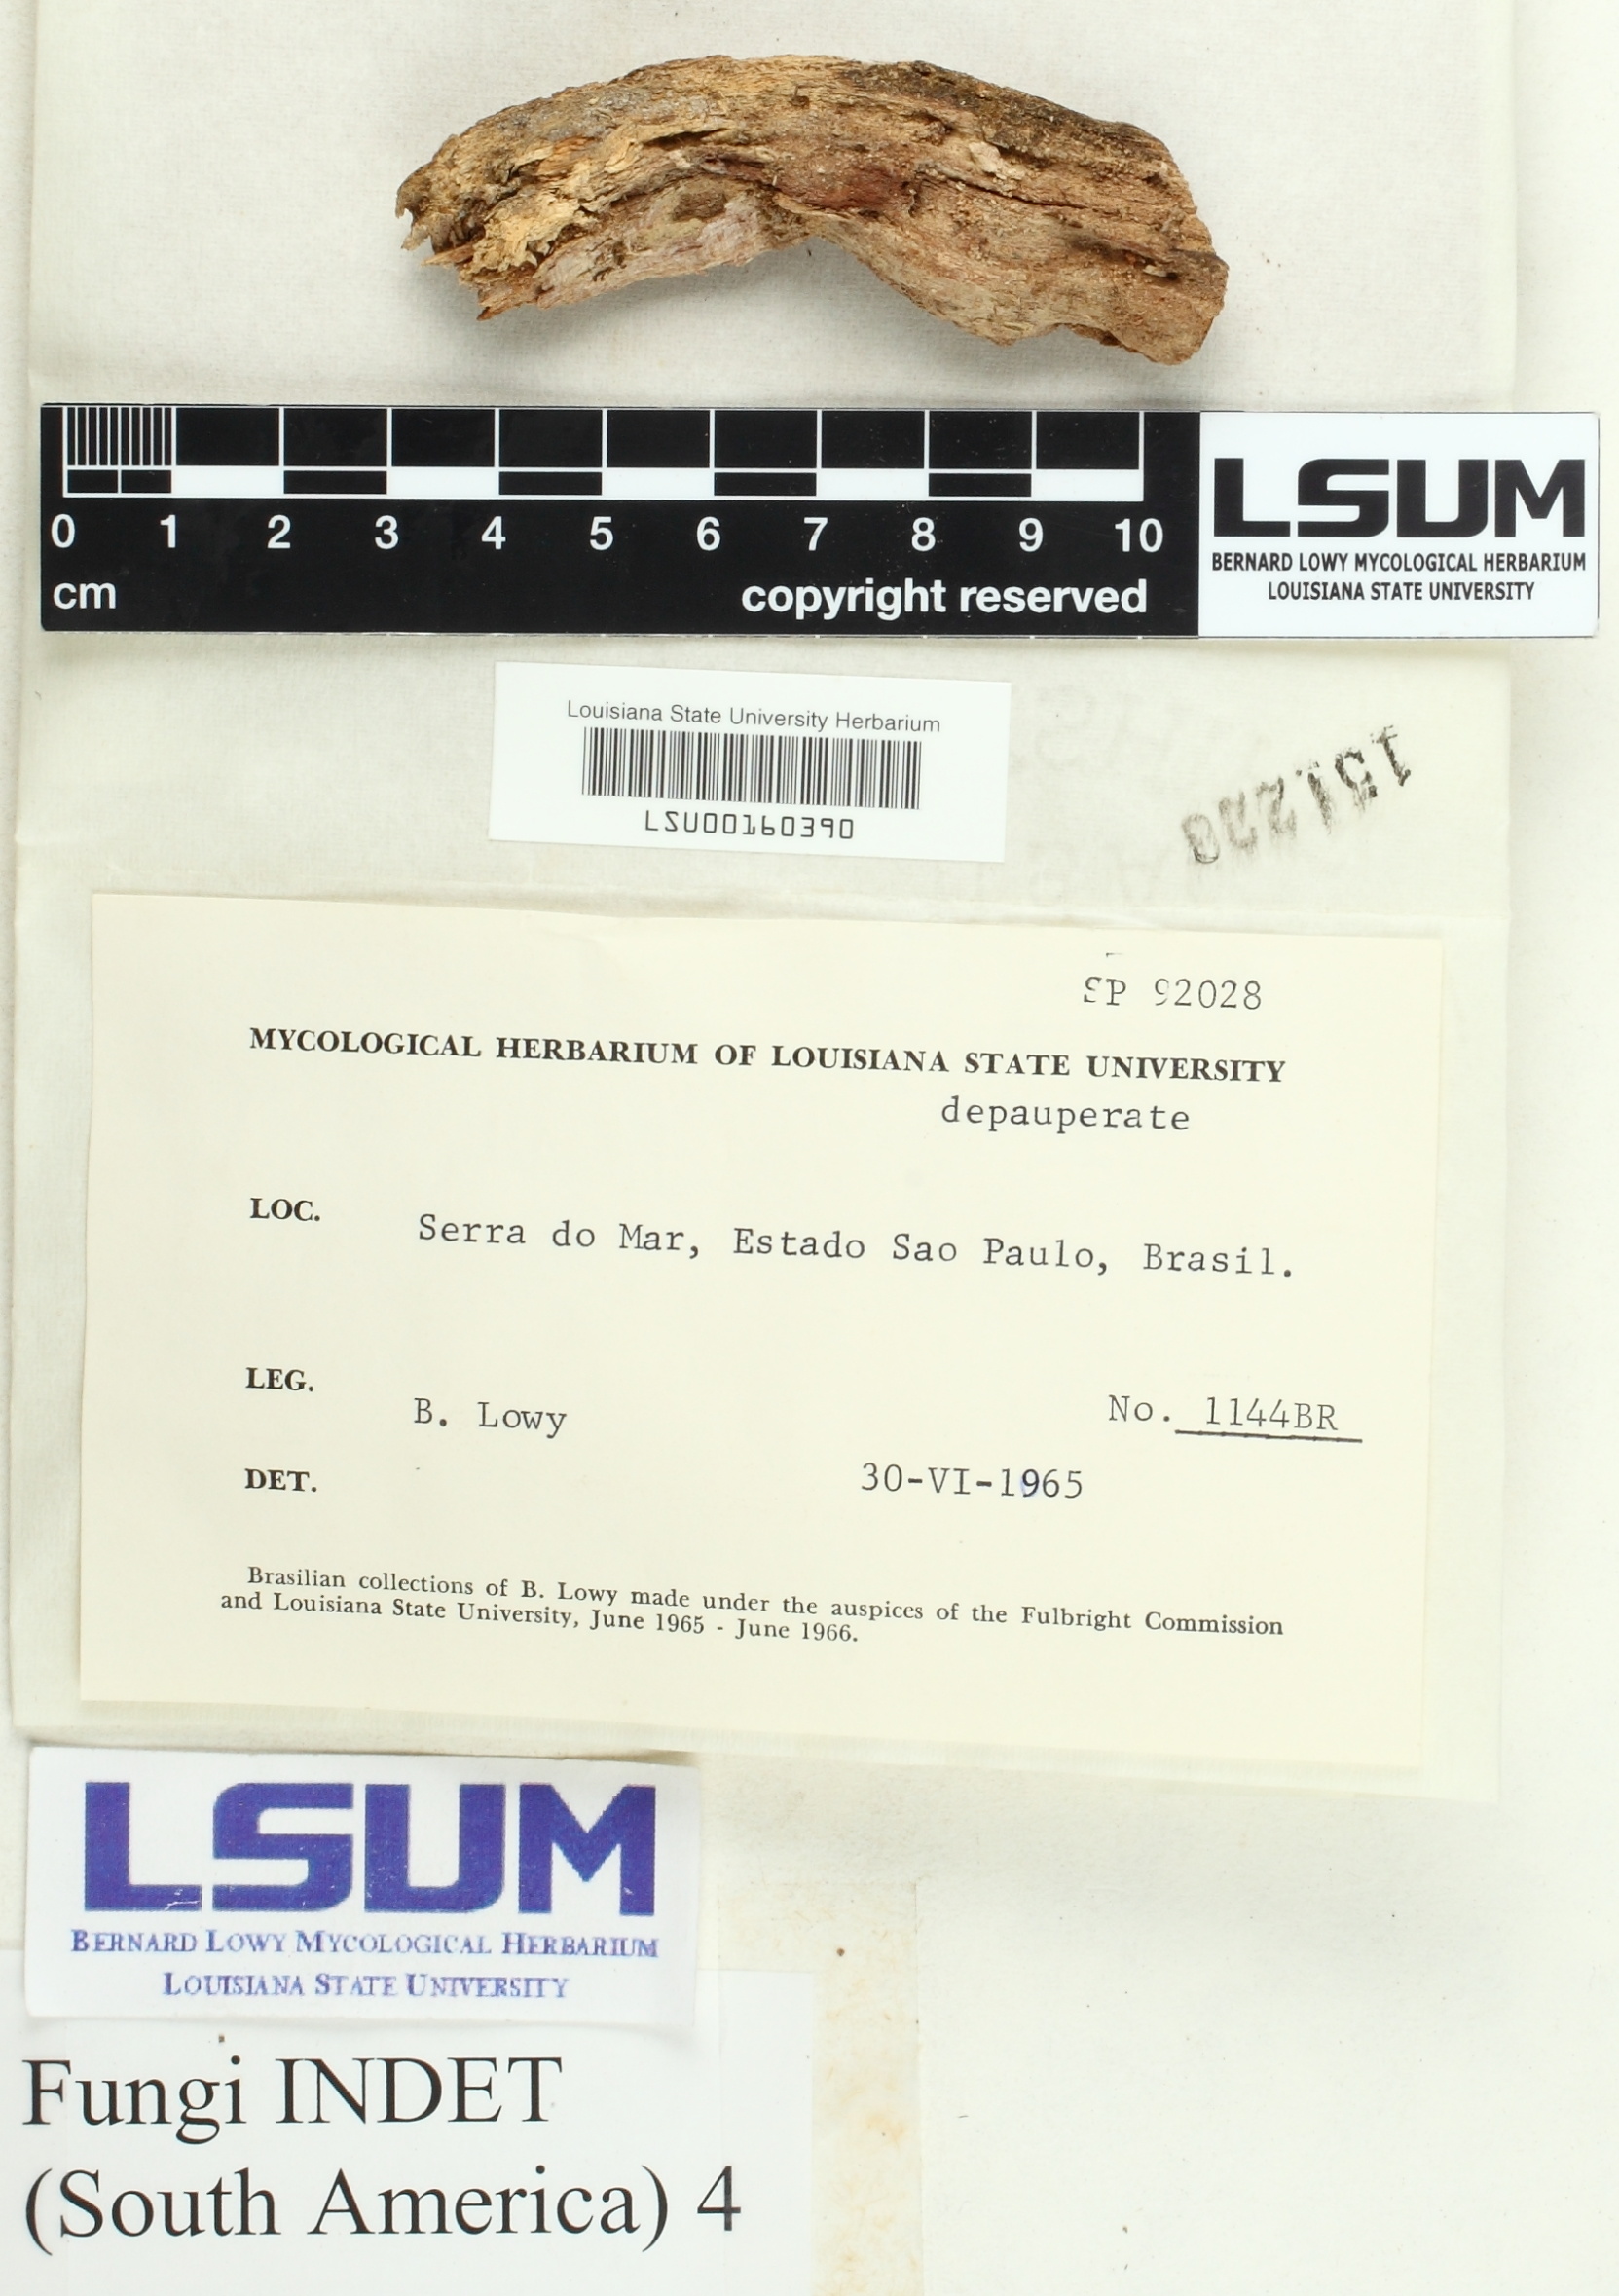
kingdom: Fungi
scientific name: Fungi
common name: Fungi
